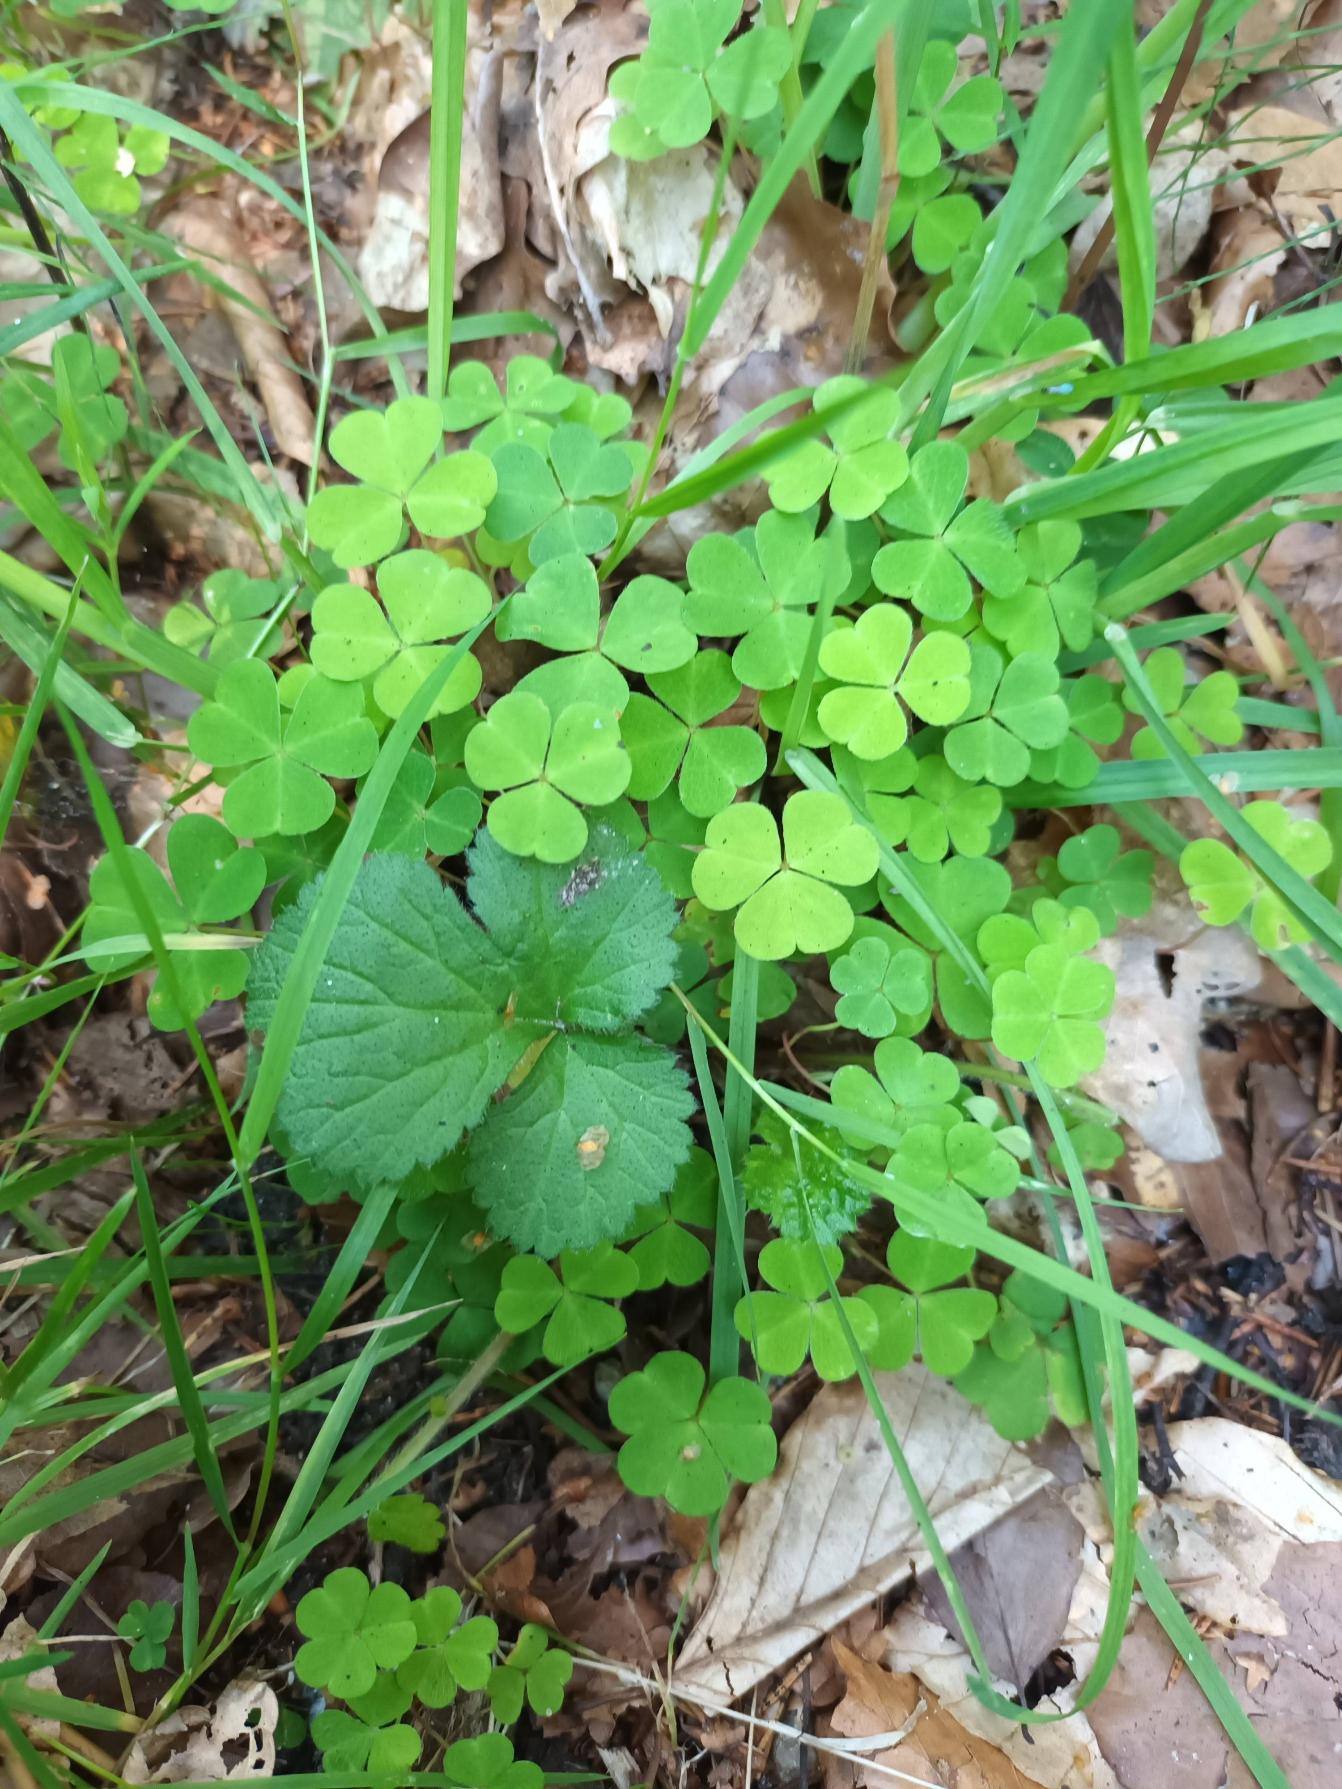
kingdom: Plantae
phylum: Tracheophyta
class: Magnoliopsida
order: Oxalidales
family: Oxalidaceae
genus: Oxalis
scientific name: Oxalis acetosella
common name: Skovsyre
